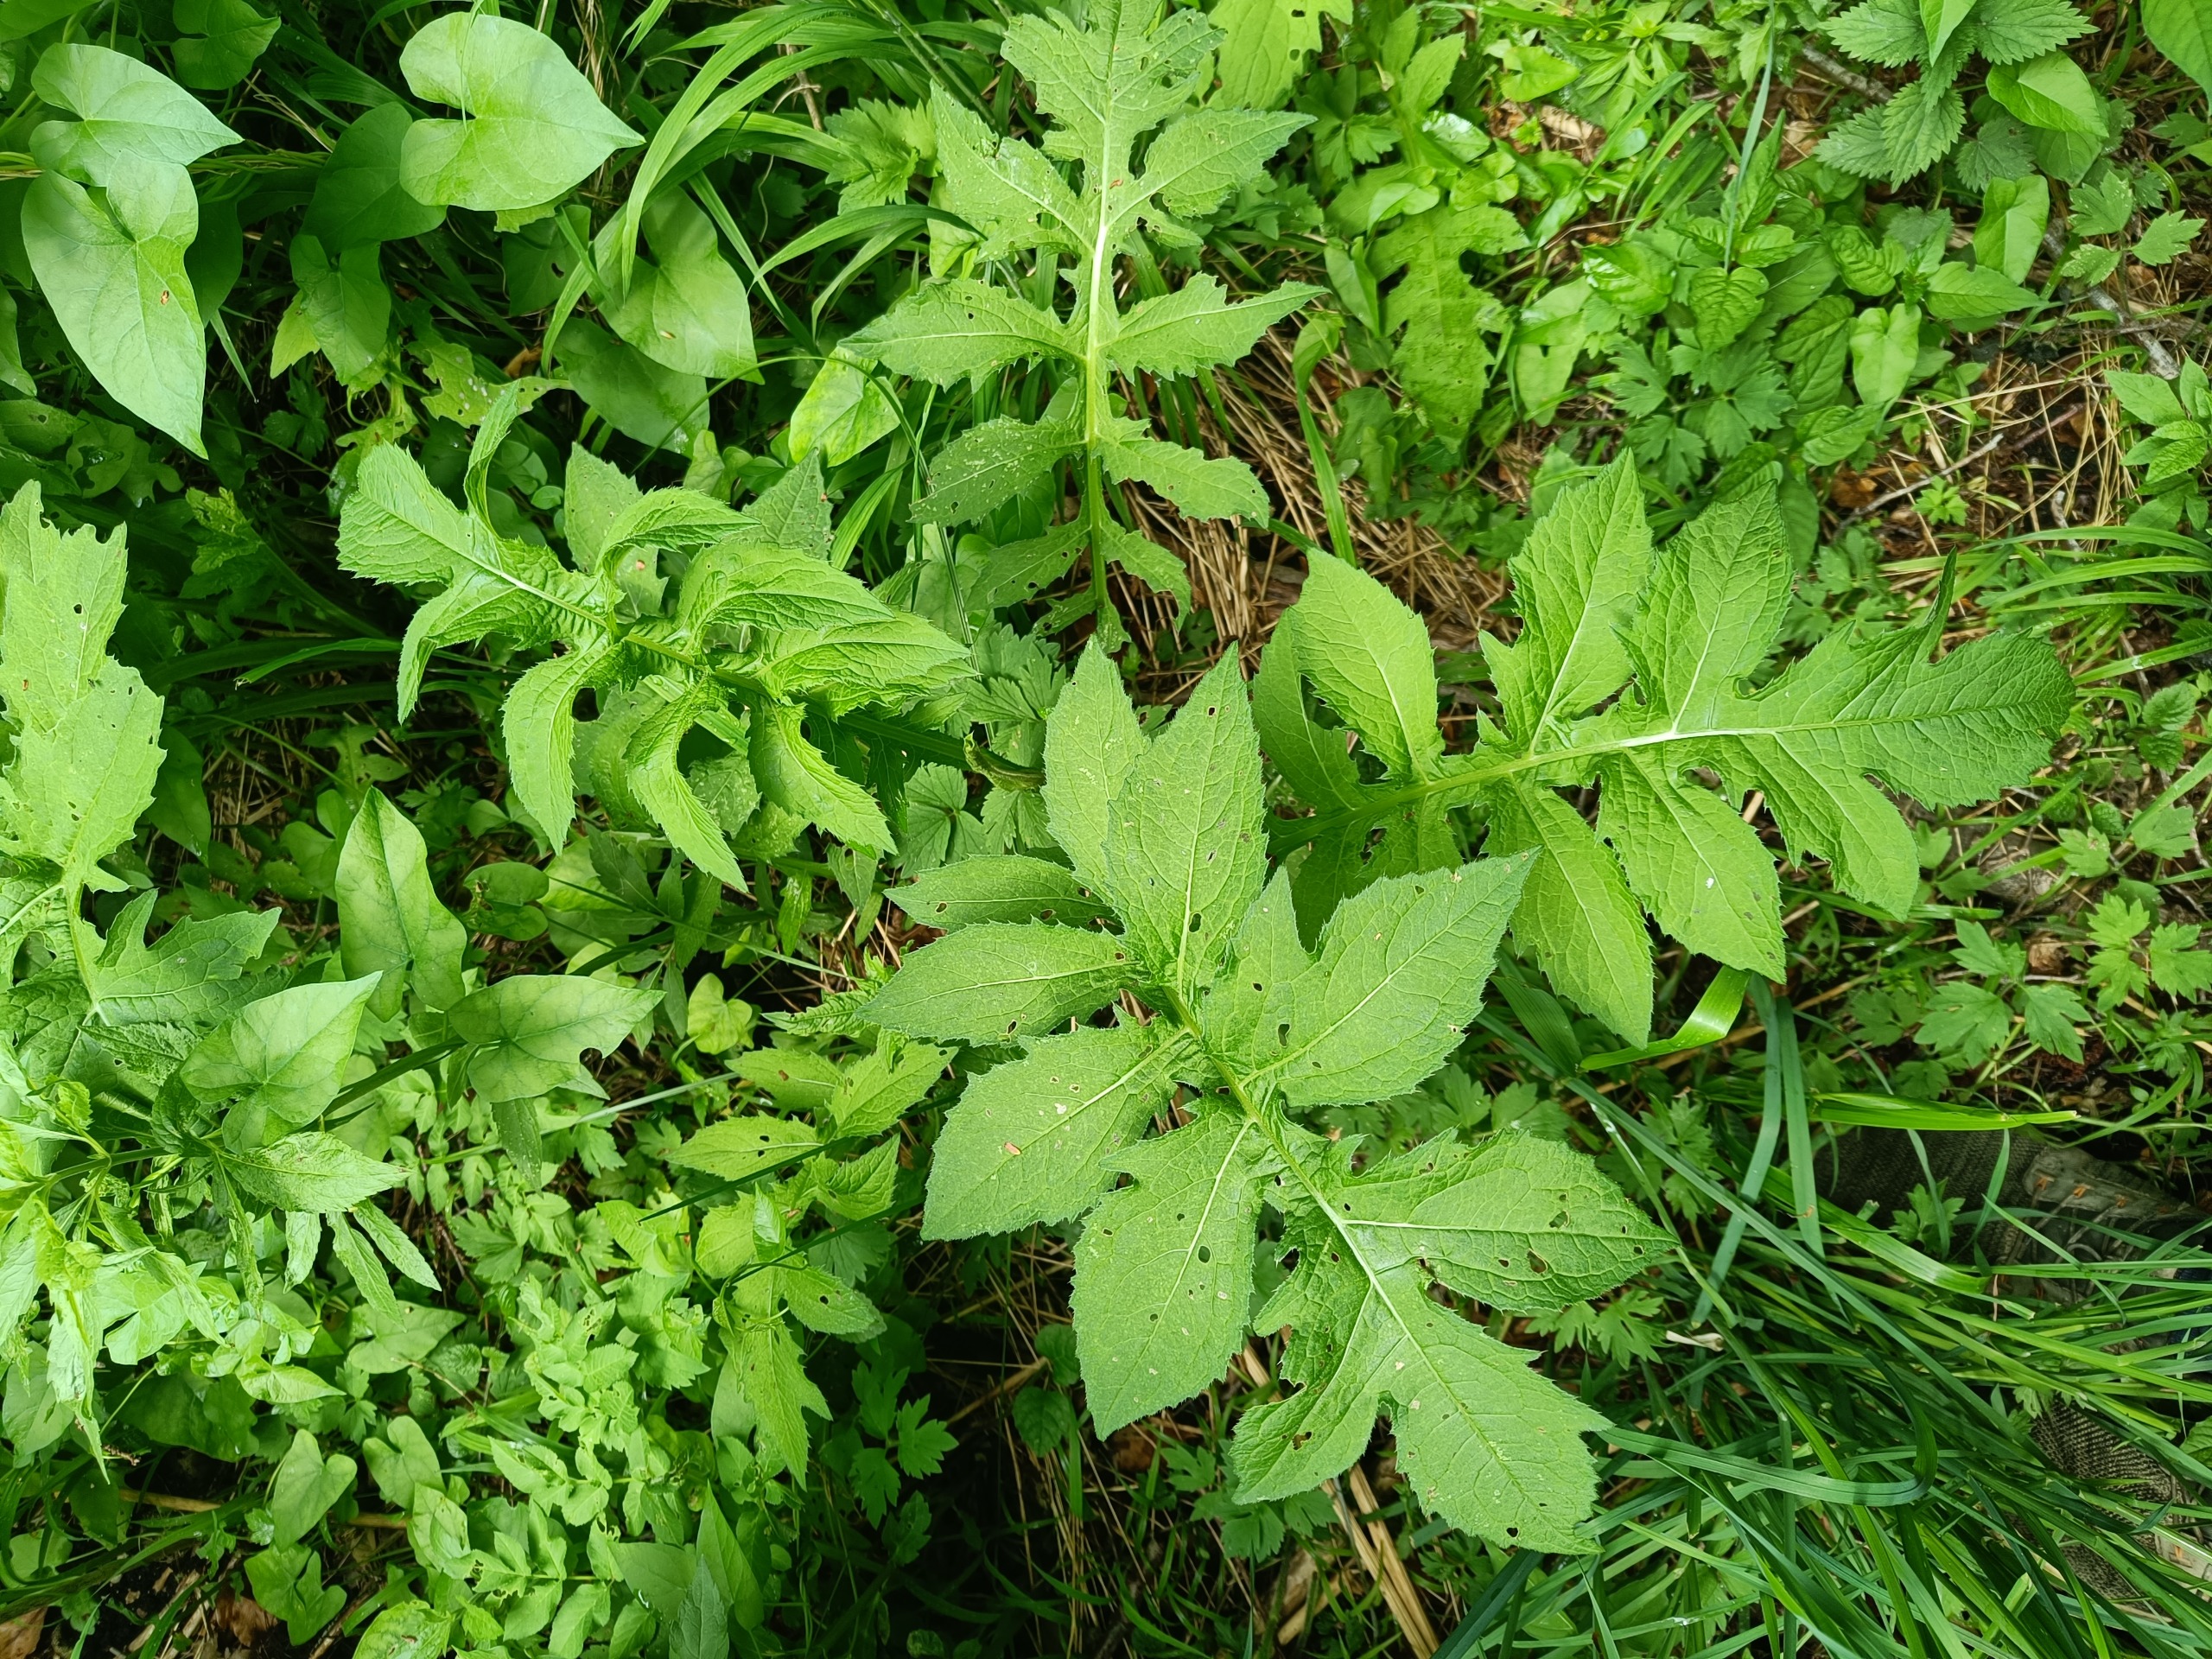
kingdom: Plantae
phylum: Tracheophyta
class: Magnoliopsida
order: Asterales
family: Asteraceae
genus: Cirsium
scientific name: Cirsium oleraceum
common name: Kål-tidsel
